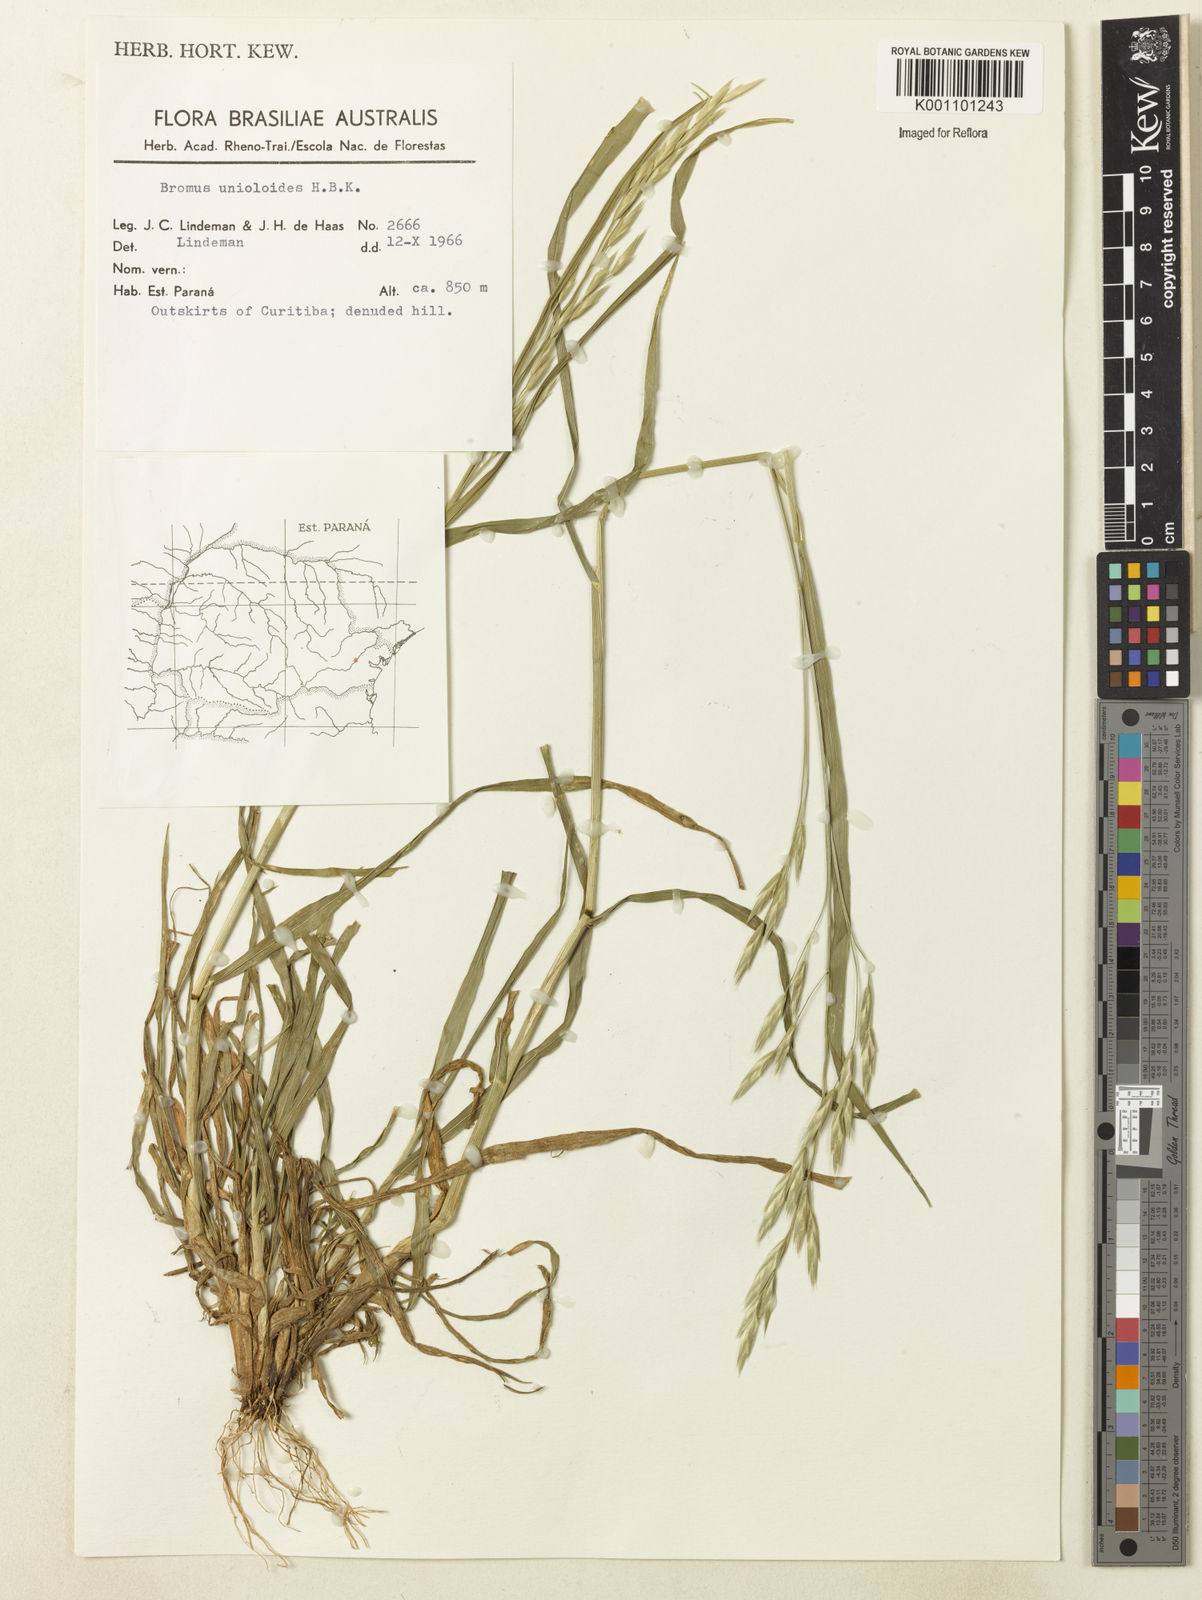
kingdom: Plantae
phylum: Tracheophyta
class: Liliopsida
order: Poales
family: Poaceae
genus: Bromus
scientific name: Bromus catharticus
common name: Rescuegrass
